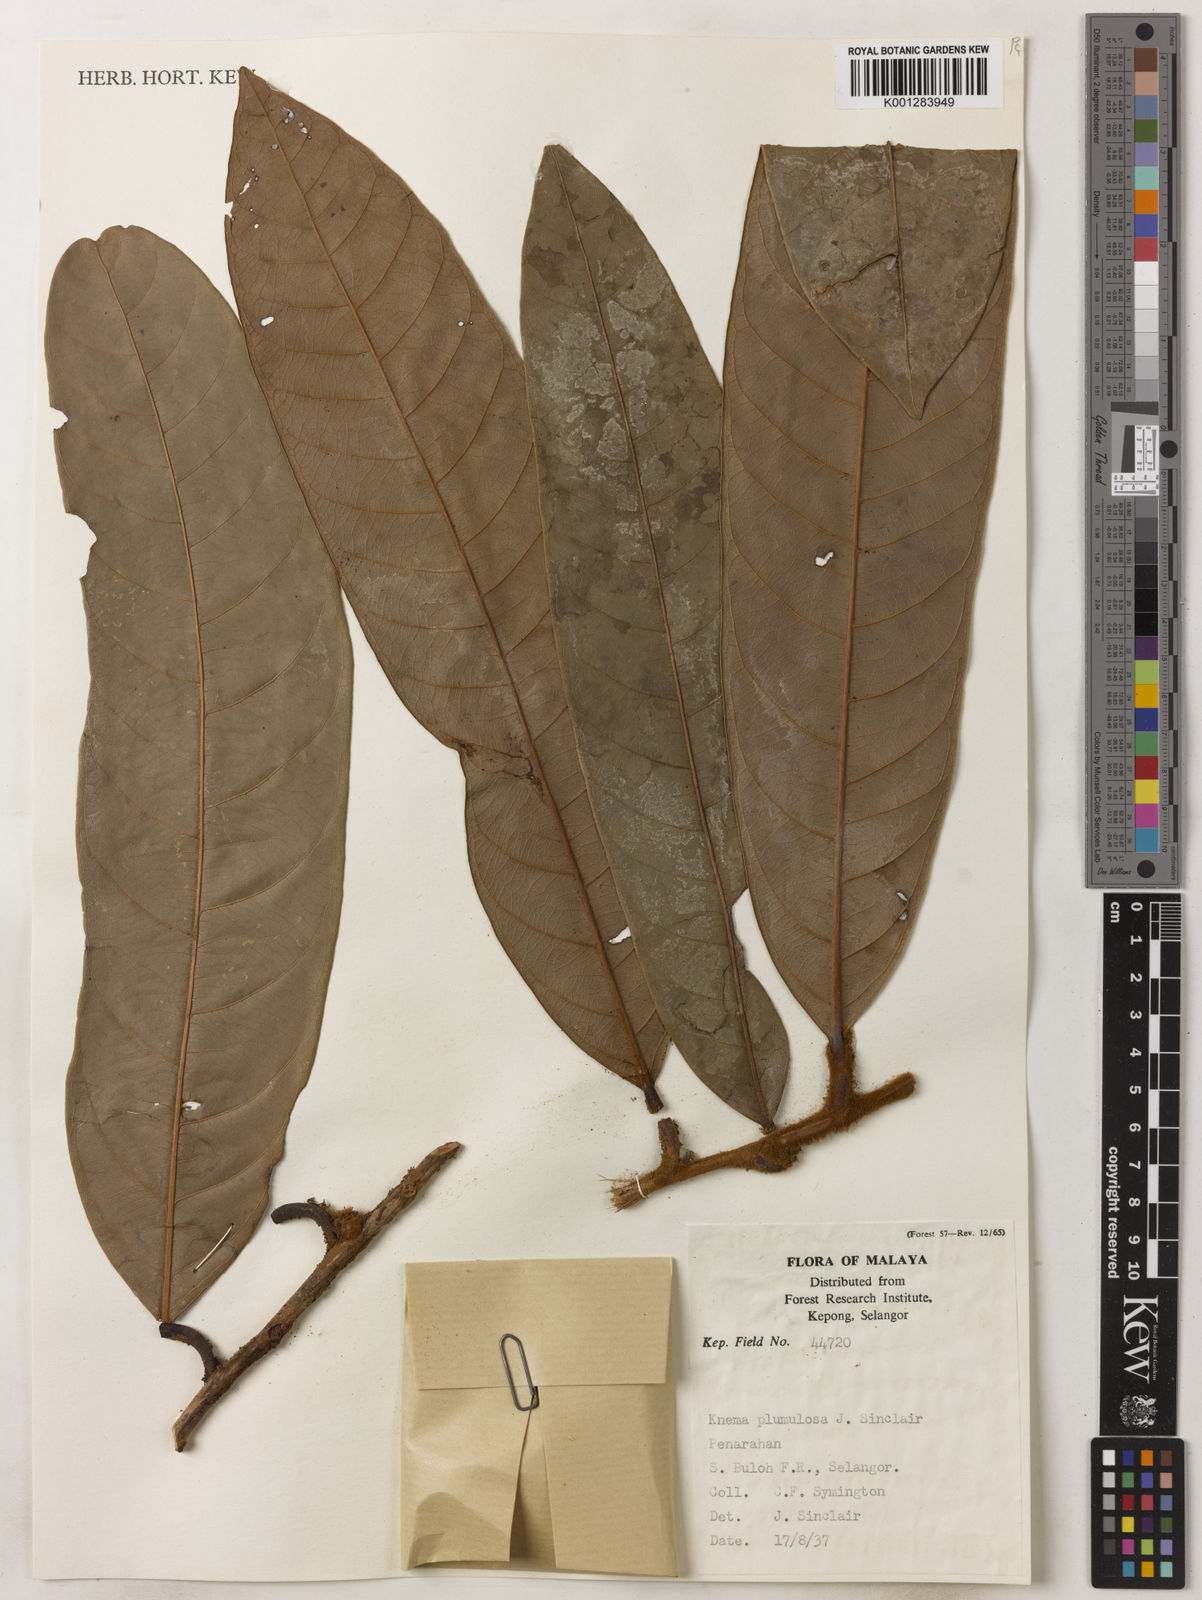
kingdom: Plantae
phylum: Tracheophyta
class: Magnoliopsida
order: Magnoliales
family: Myristicaceae
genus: Knema
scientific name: Knema plumulosa
